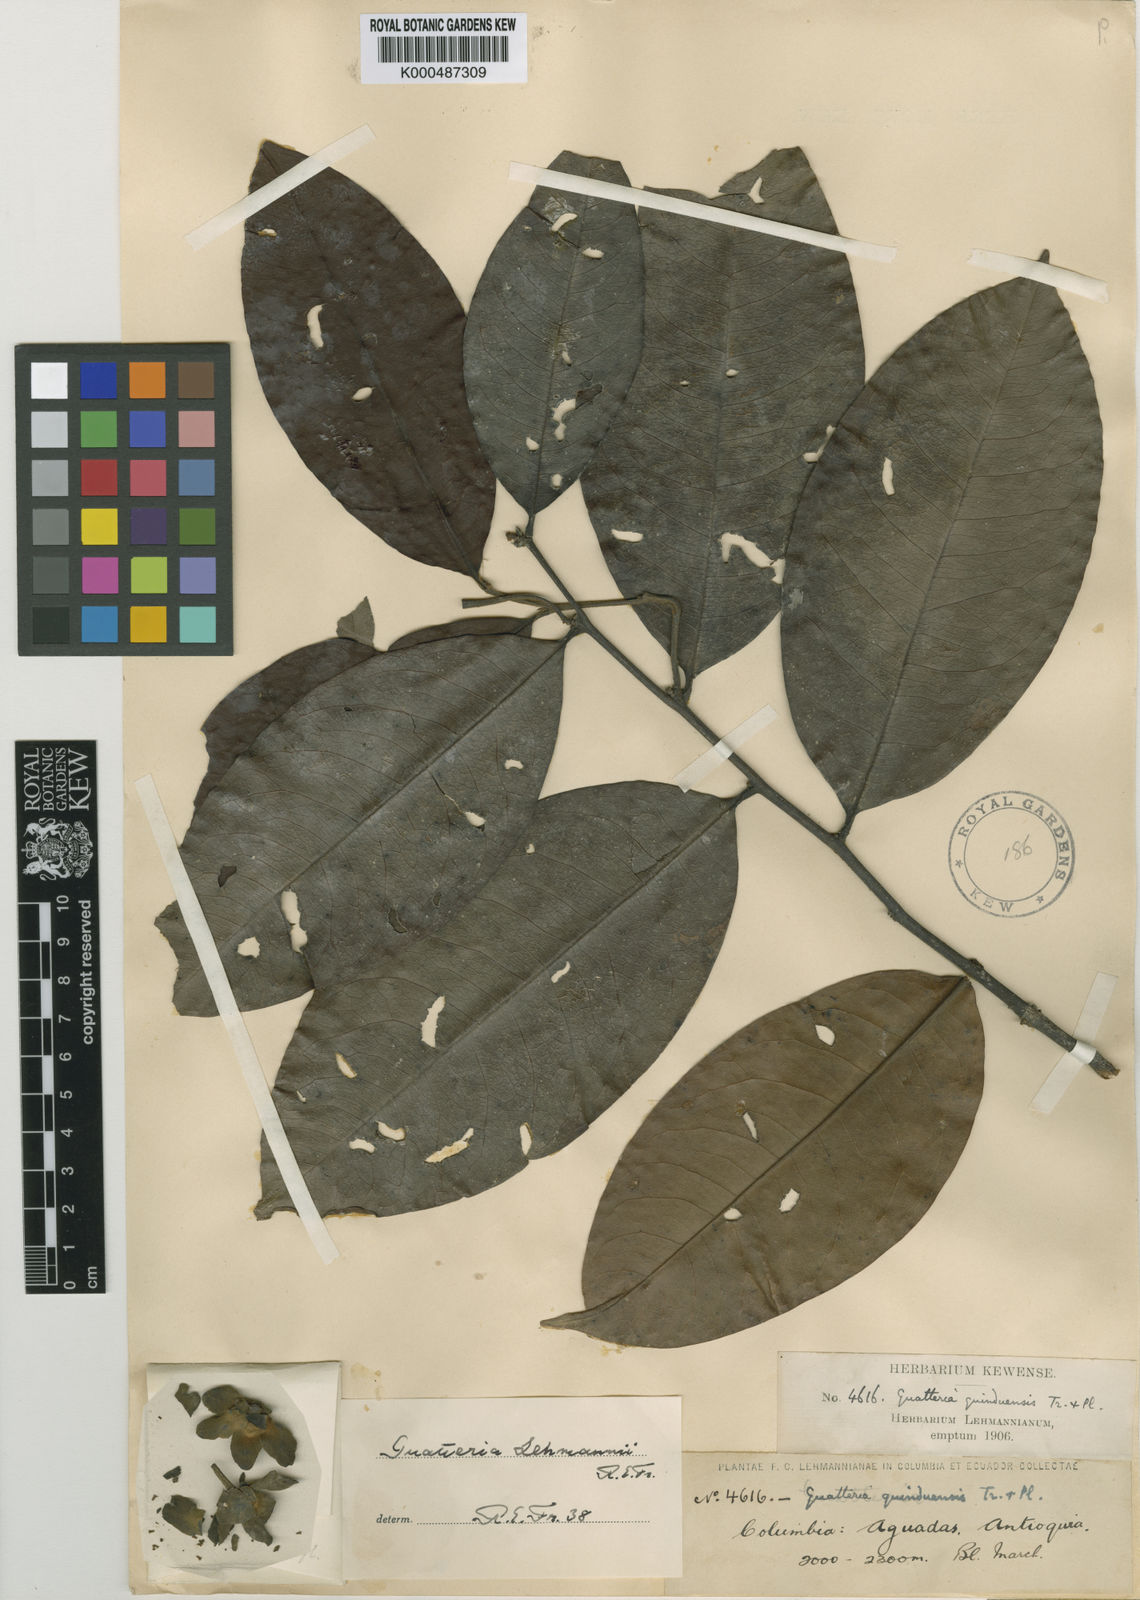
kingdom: Plantae
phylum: Tracheophyta
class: Magnoliopsida
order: Magnoliales
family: Annonaceae
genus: Guatteria
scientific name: Guatteria goudotiana
